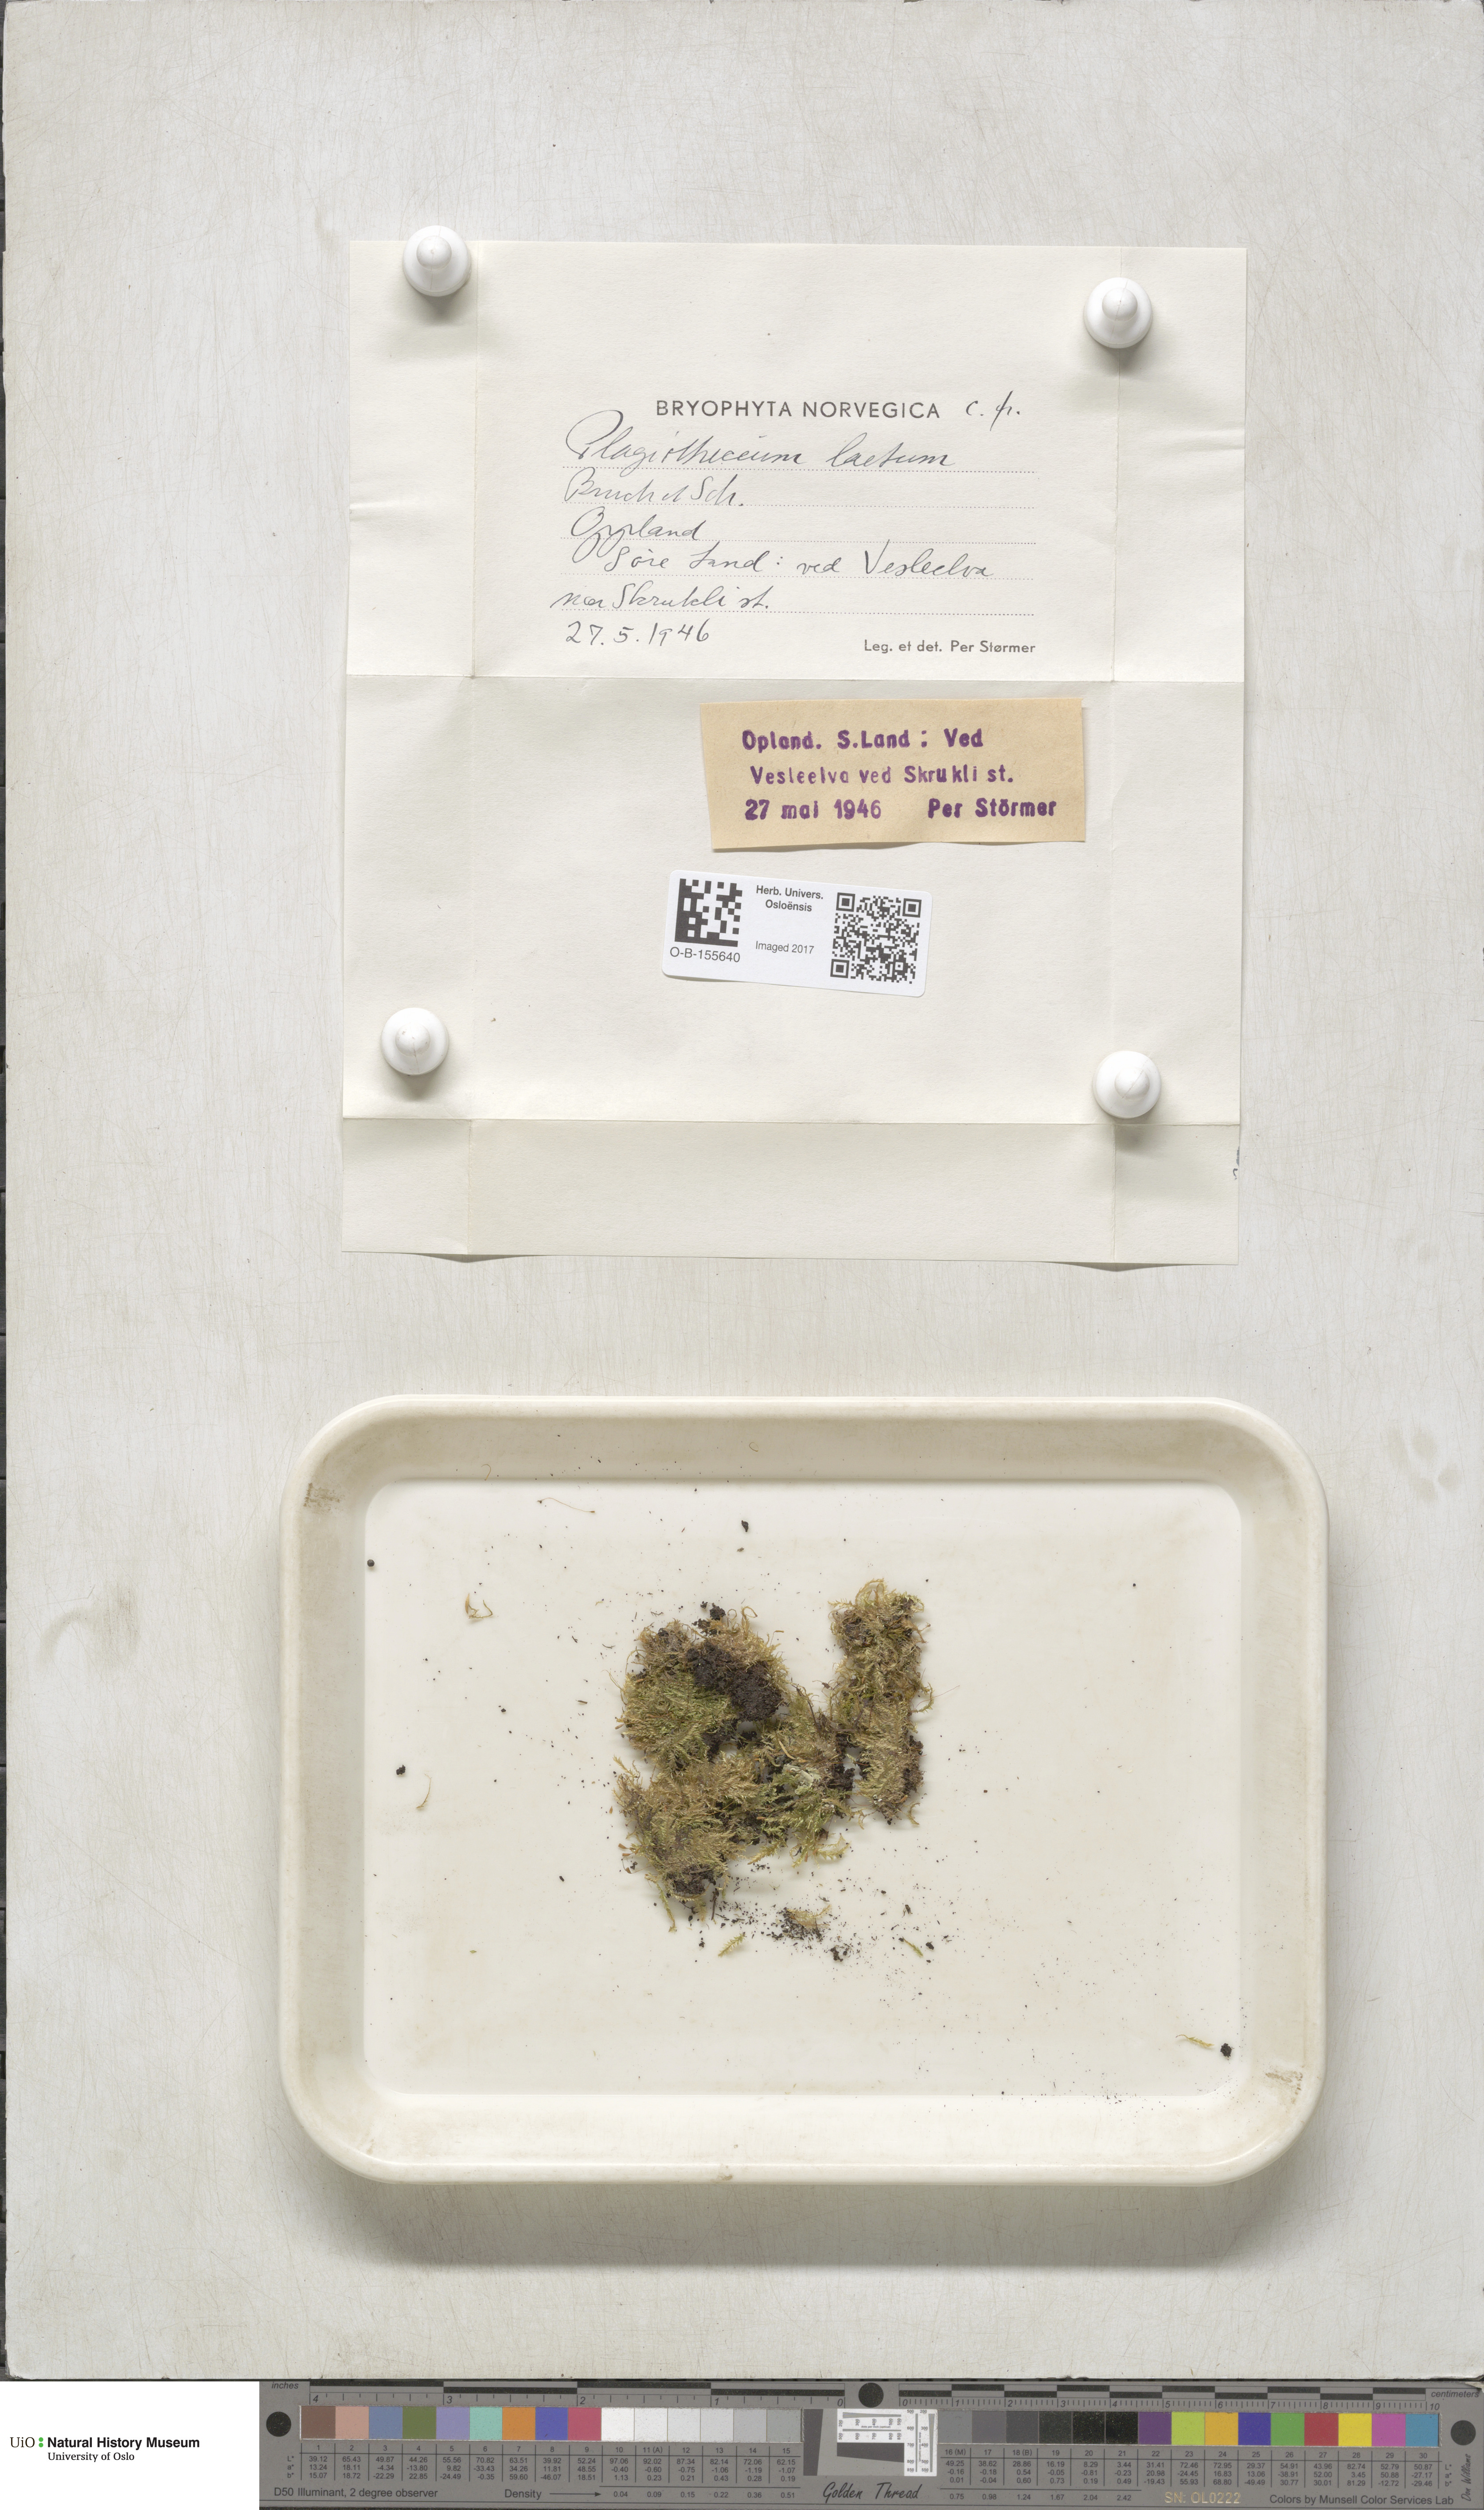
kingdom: Plantae
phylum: Bryophyta
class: Bryopsida
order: Hypnales
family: Plagiotheciaceae
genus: Plagiothecium
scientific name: Plagiothecium laetum
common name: Bright silk moss
